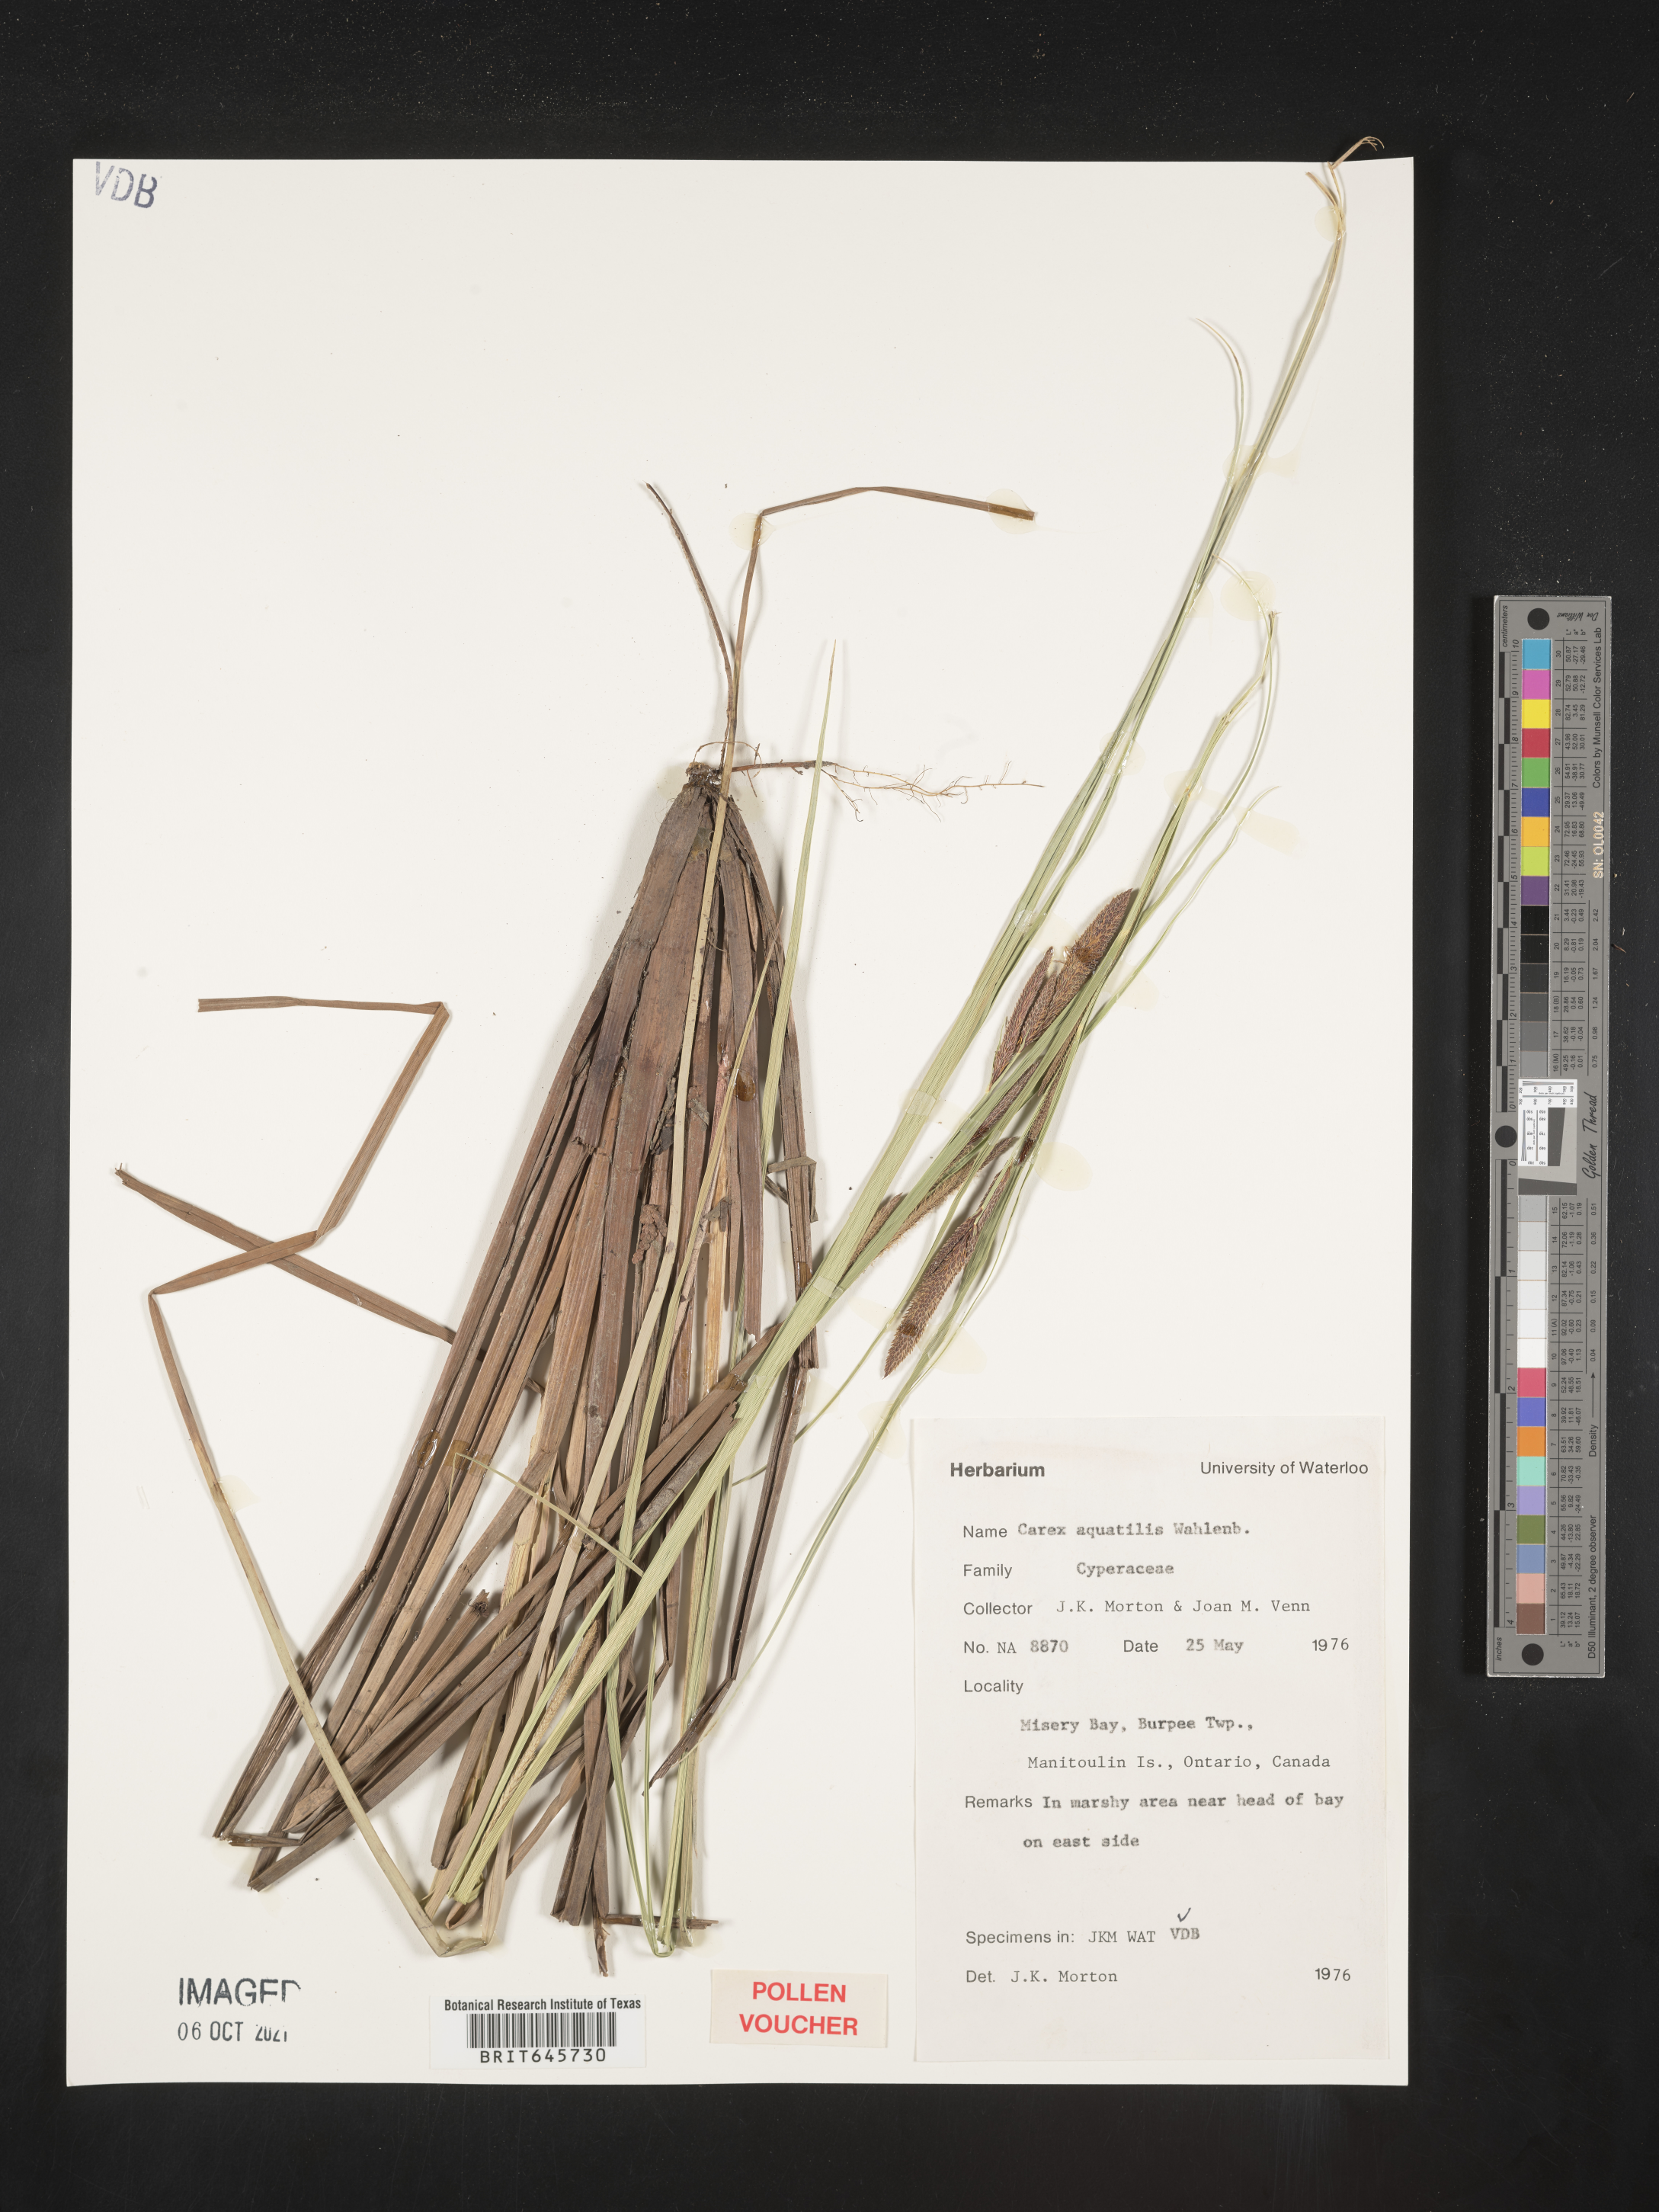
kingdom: Plantae
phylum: Tracheophyta
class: Liliopsida
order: Poales
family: Cyperaceae
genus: Carex
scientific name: Carex aquatilis
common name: Water sedge
